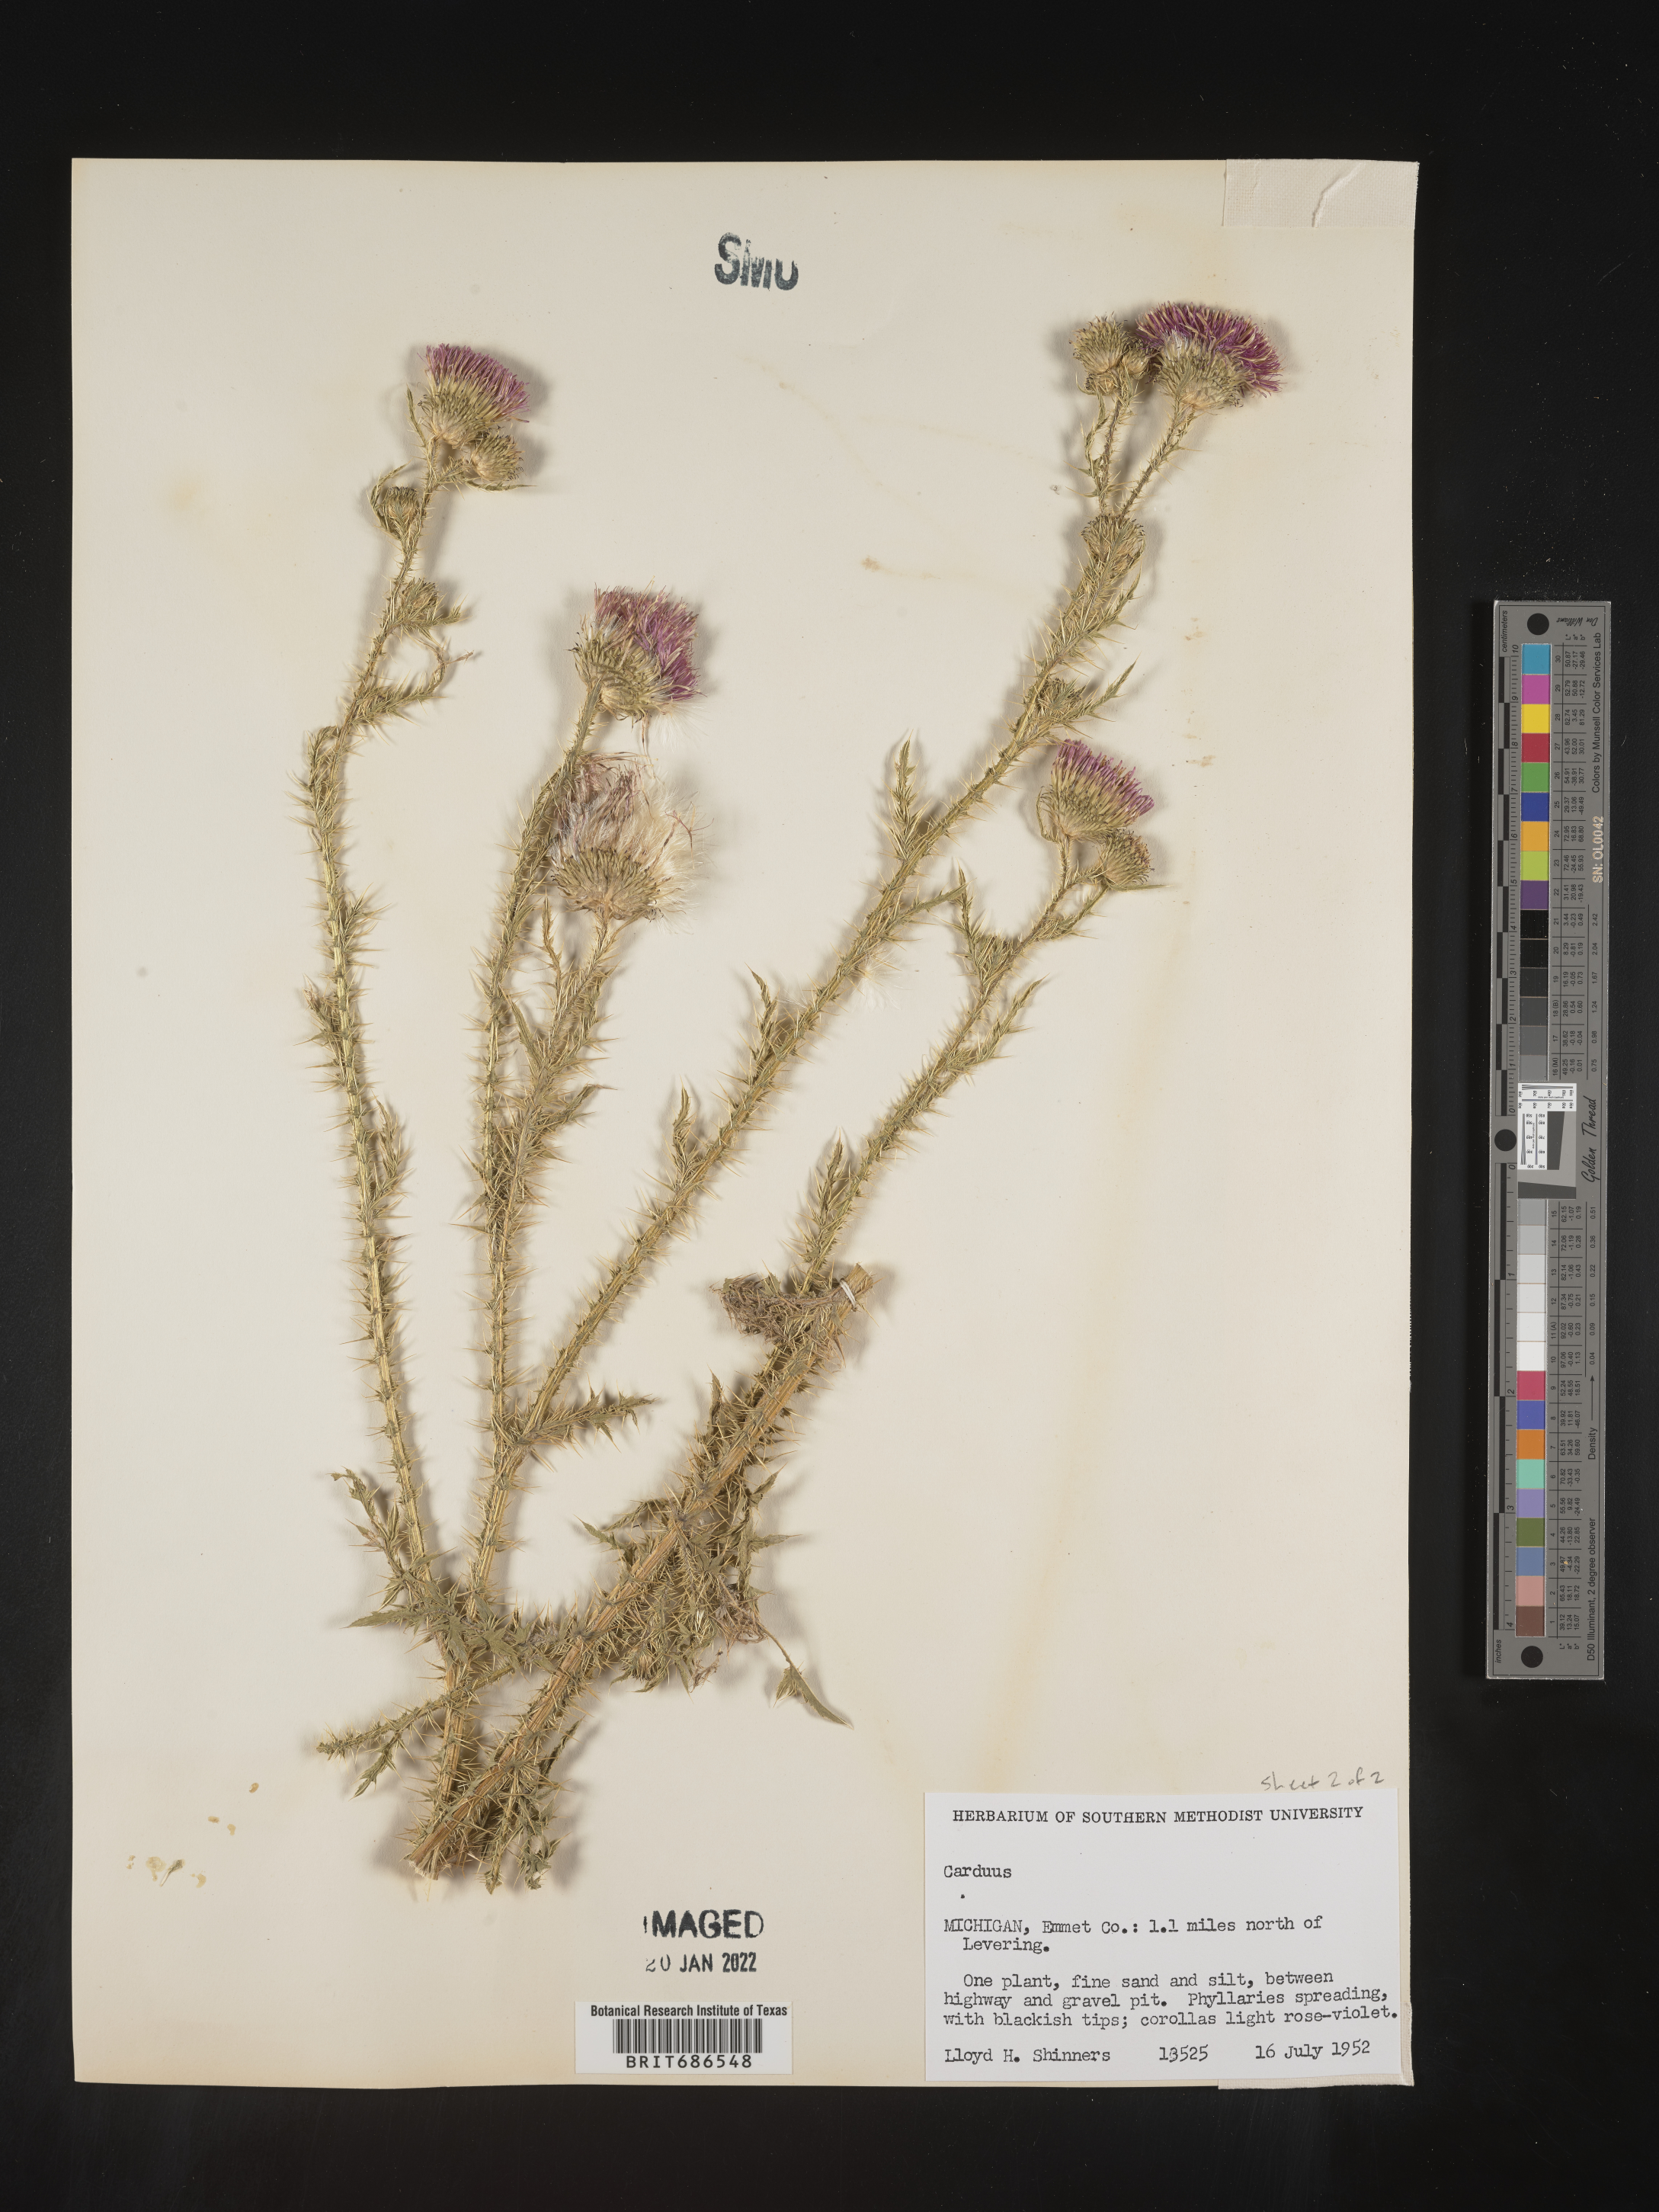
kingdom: Plantae
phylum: Tracheophyta
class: Magnoliopsida
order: Asterales
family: Asteraceae
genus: Carduus
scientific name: Carduus crispus
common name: Welted thistle
